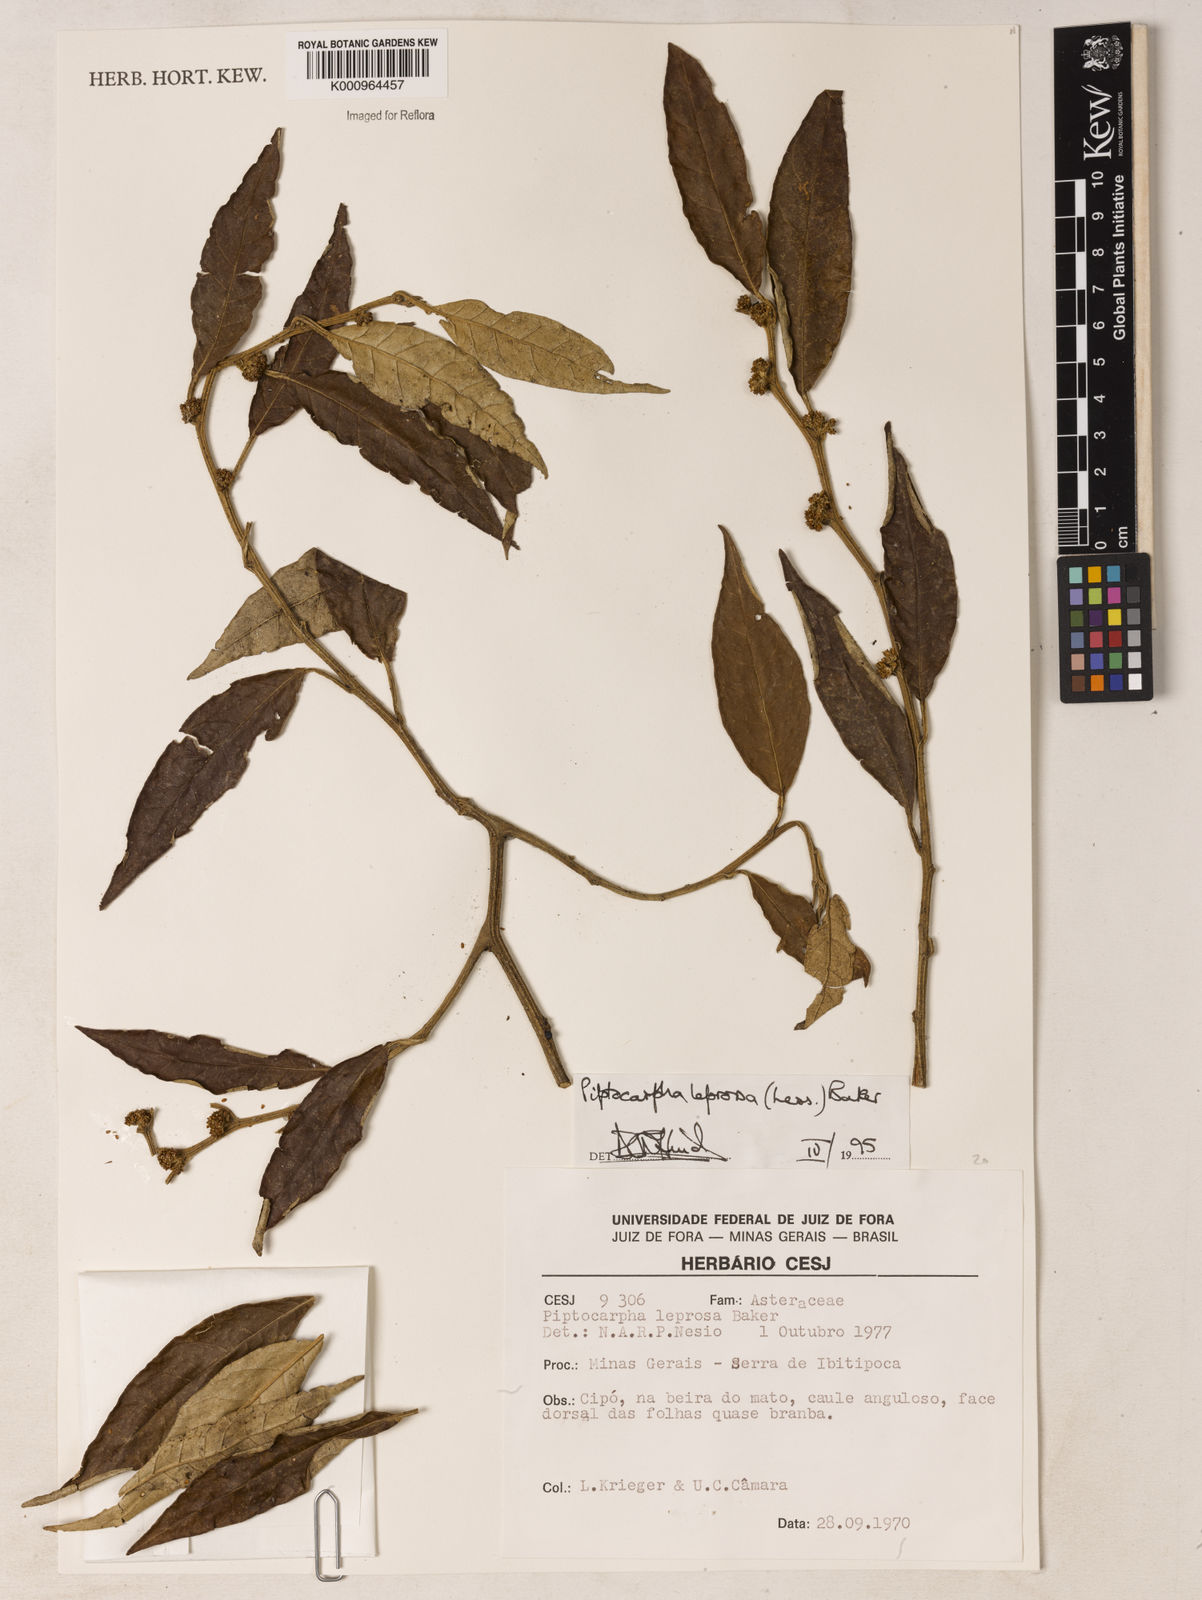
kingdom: Plantae
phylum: Tracheophyta
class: Magnoliopsida
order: Asterales
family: Asteraceae
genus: Piptocarpha
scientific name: Piptocarpha leprosa
